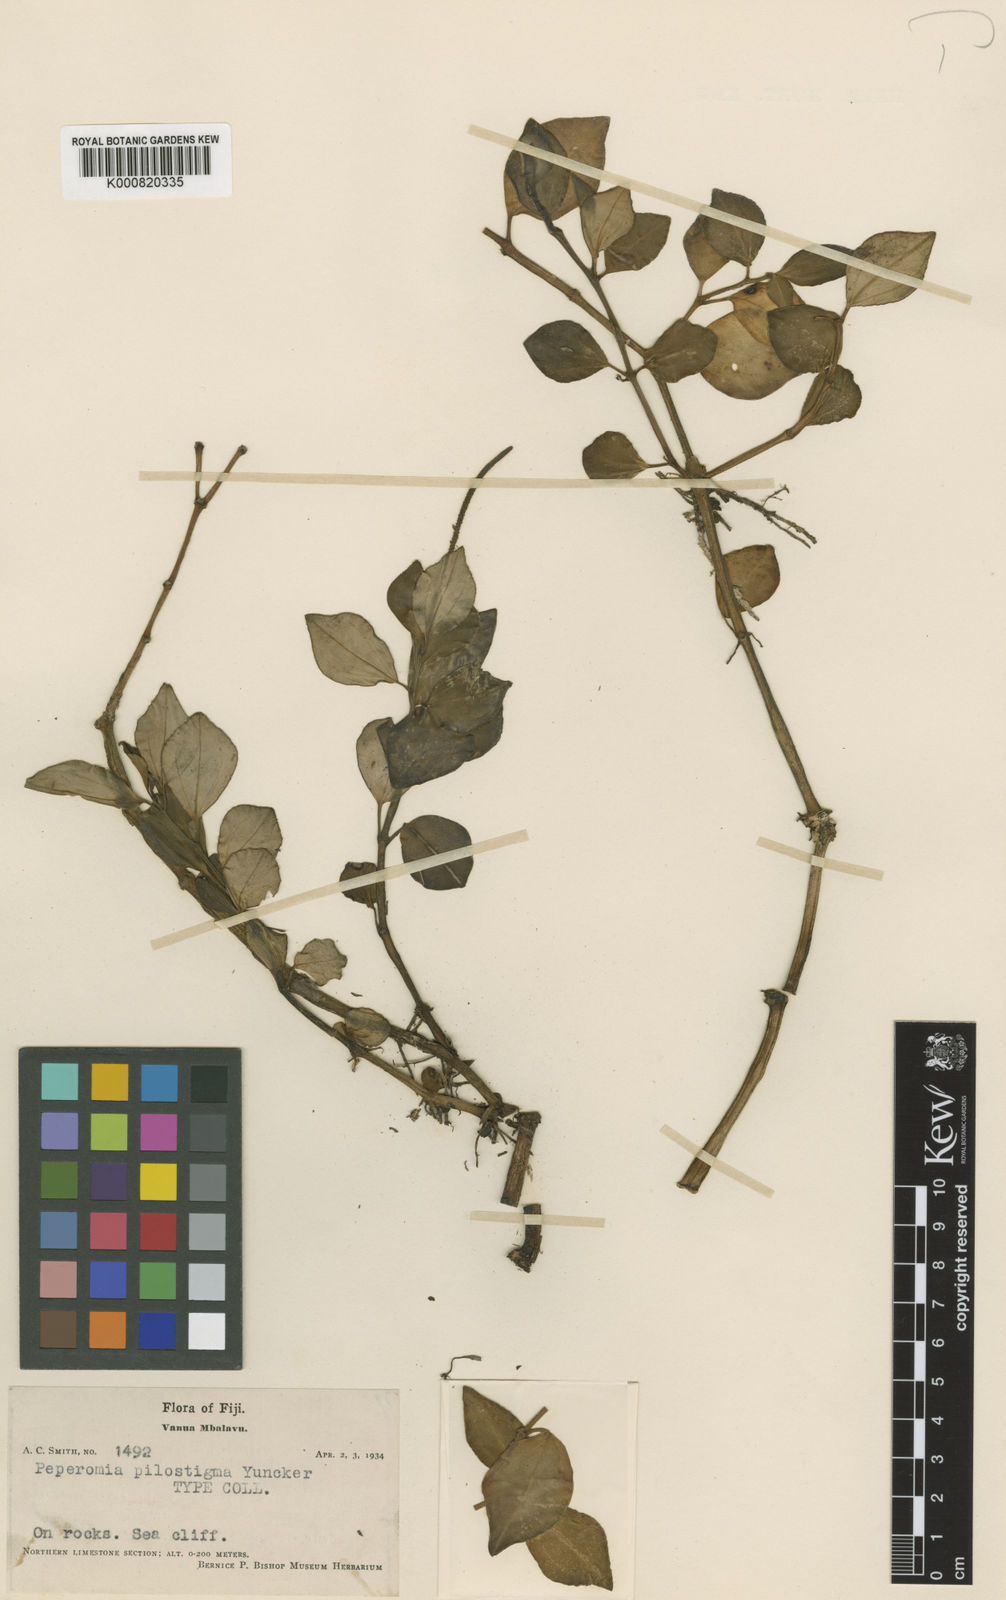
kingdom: Plantae
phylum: Tracheophyta
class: Magnoliopsida
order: Piperales
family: Piperaceae
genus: Peperomia
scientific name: Peperomia pilostigma
